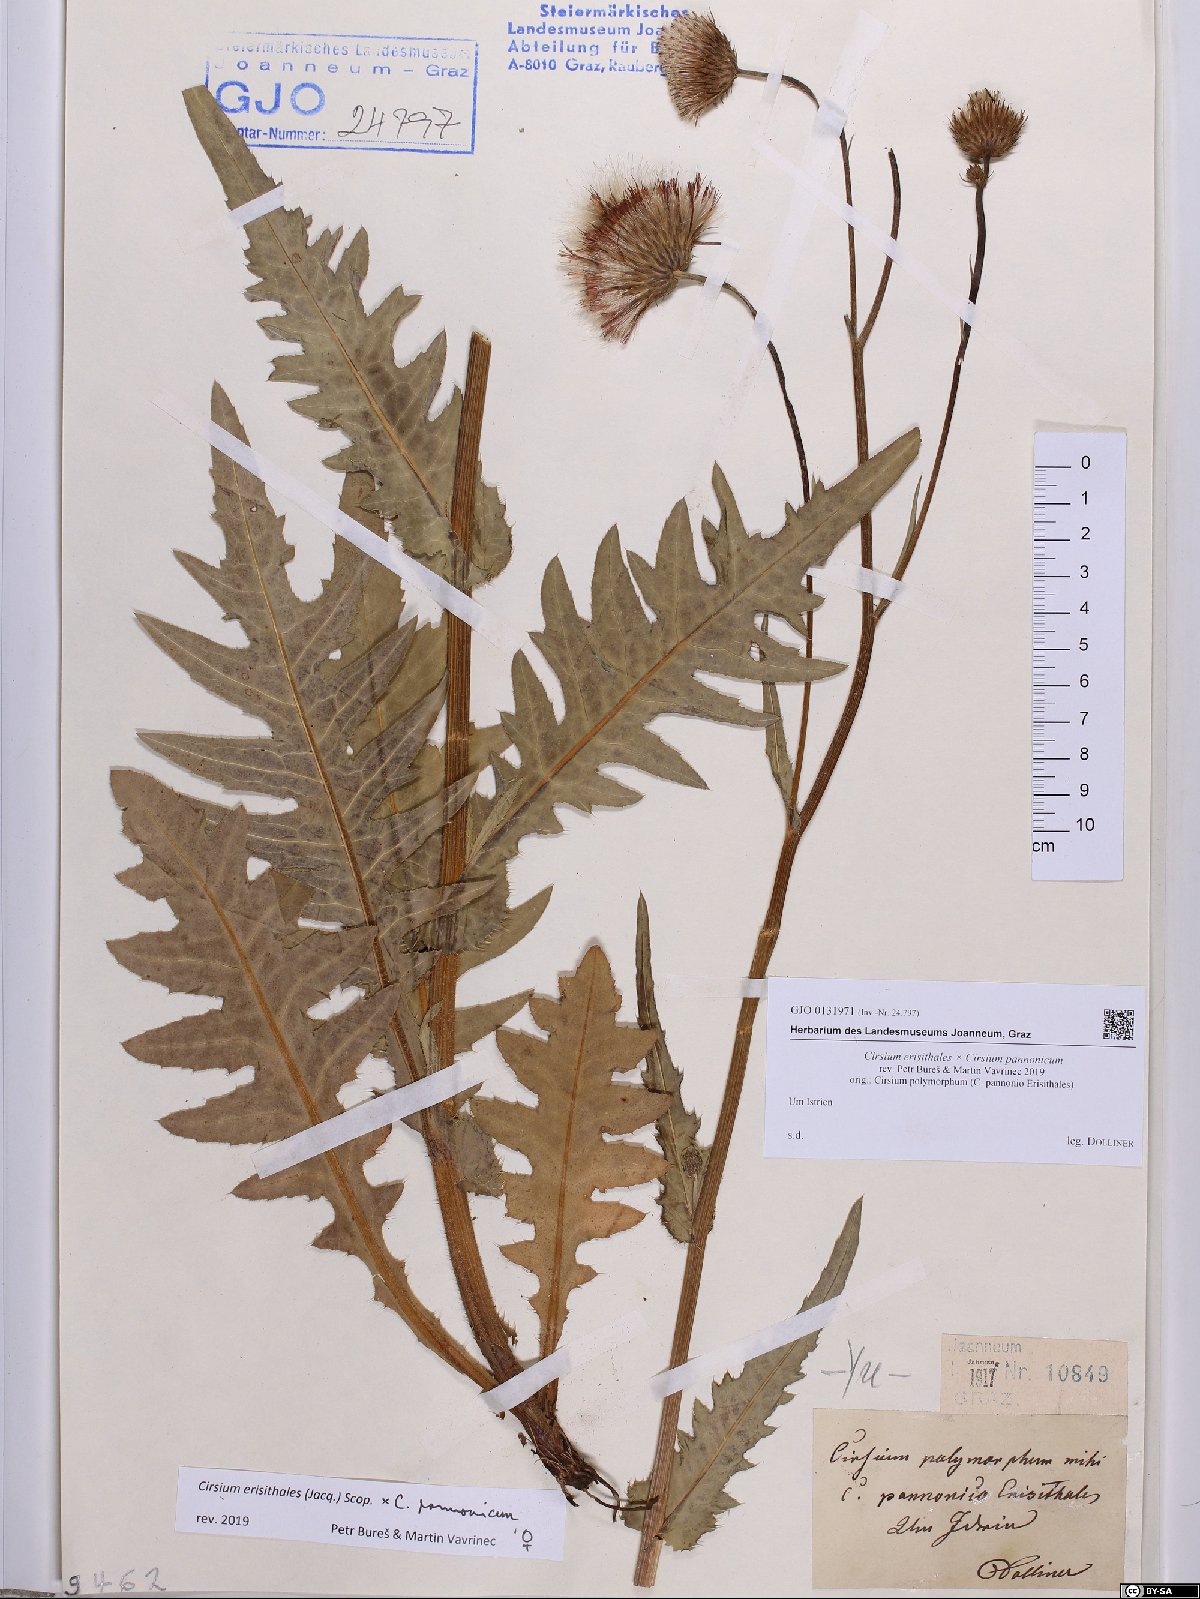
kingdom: Plantae
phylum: Tracheophyta
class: Magnoliopsida
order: Asterales
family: Asteraceae
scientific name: Asteraceae
